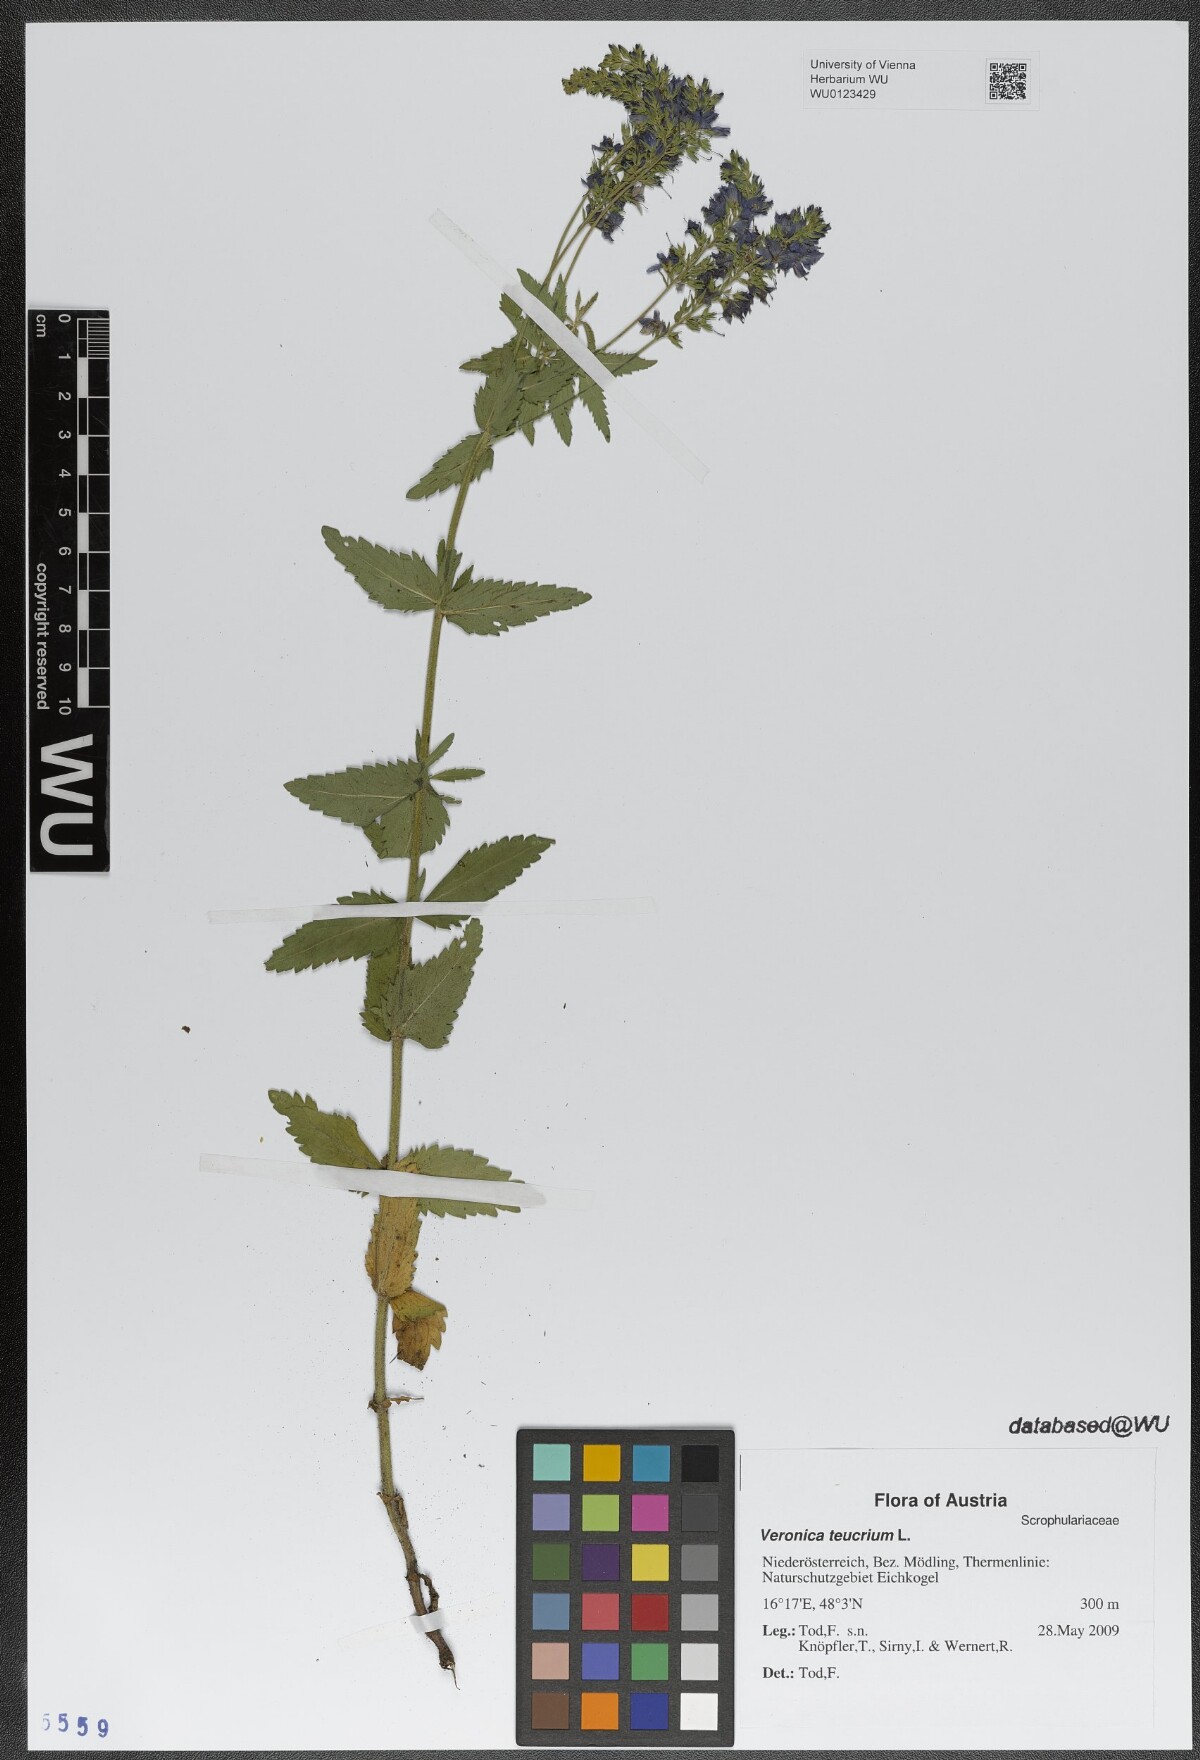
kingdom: Plantae
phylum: Tracheophyta
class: Magnoliopsida
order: Lamiales
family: Plantaginaceae
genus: Veronica
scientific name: Veronica teucrium
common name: Large speedwell
